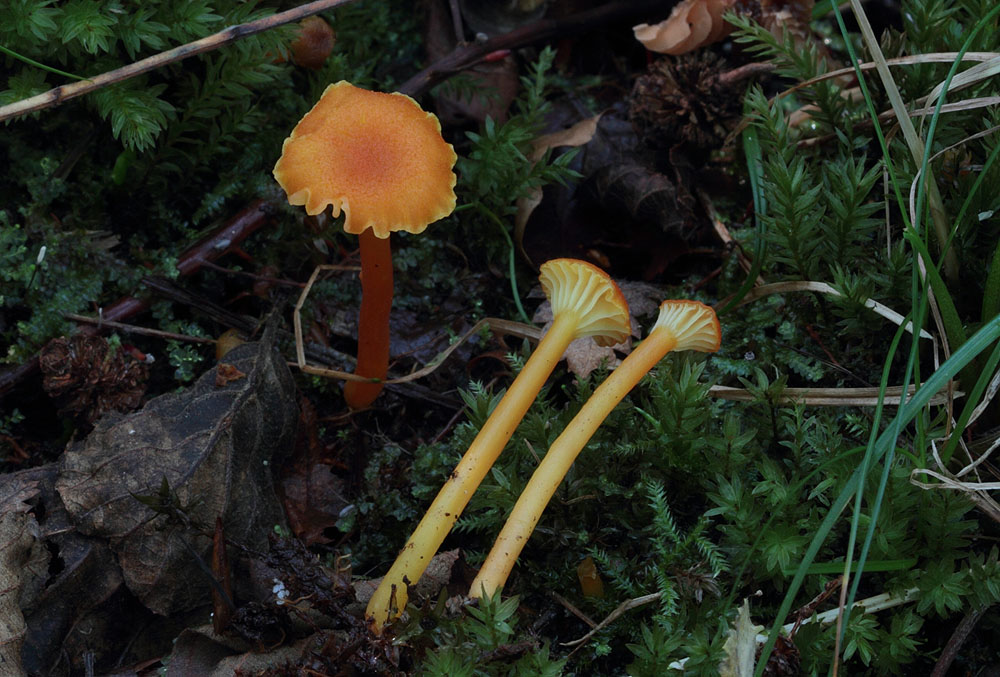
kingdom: Fungi
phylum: Basidiomycota
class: Agaricomycetes
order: Agaricales
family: Hygrophoraceae
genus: Hygrocybe
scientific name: Hygrocybe cantharellus
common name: kantarel-vokshat
